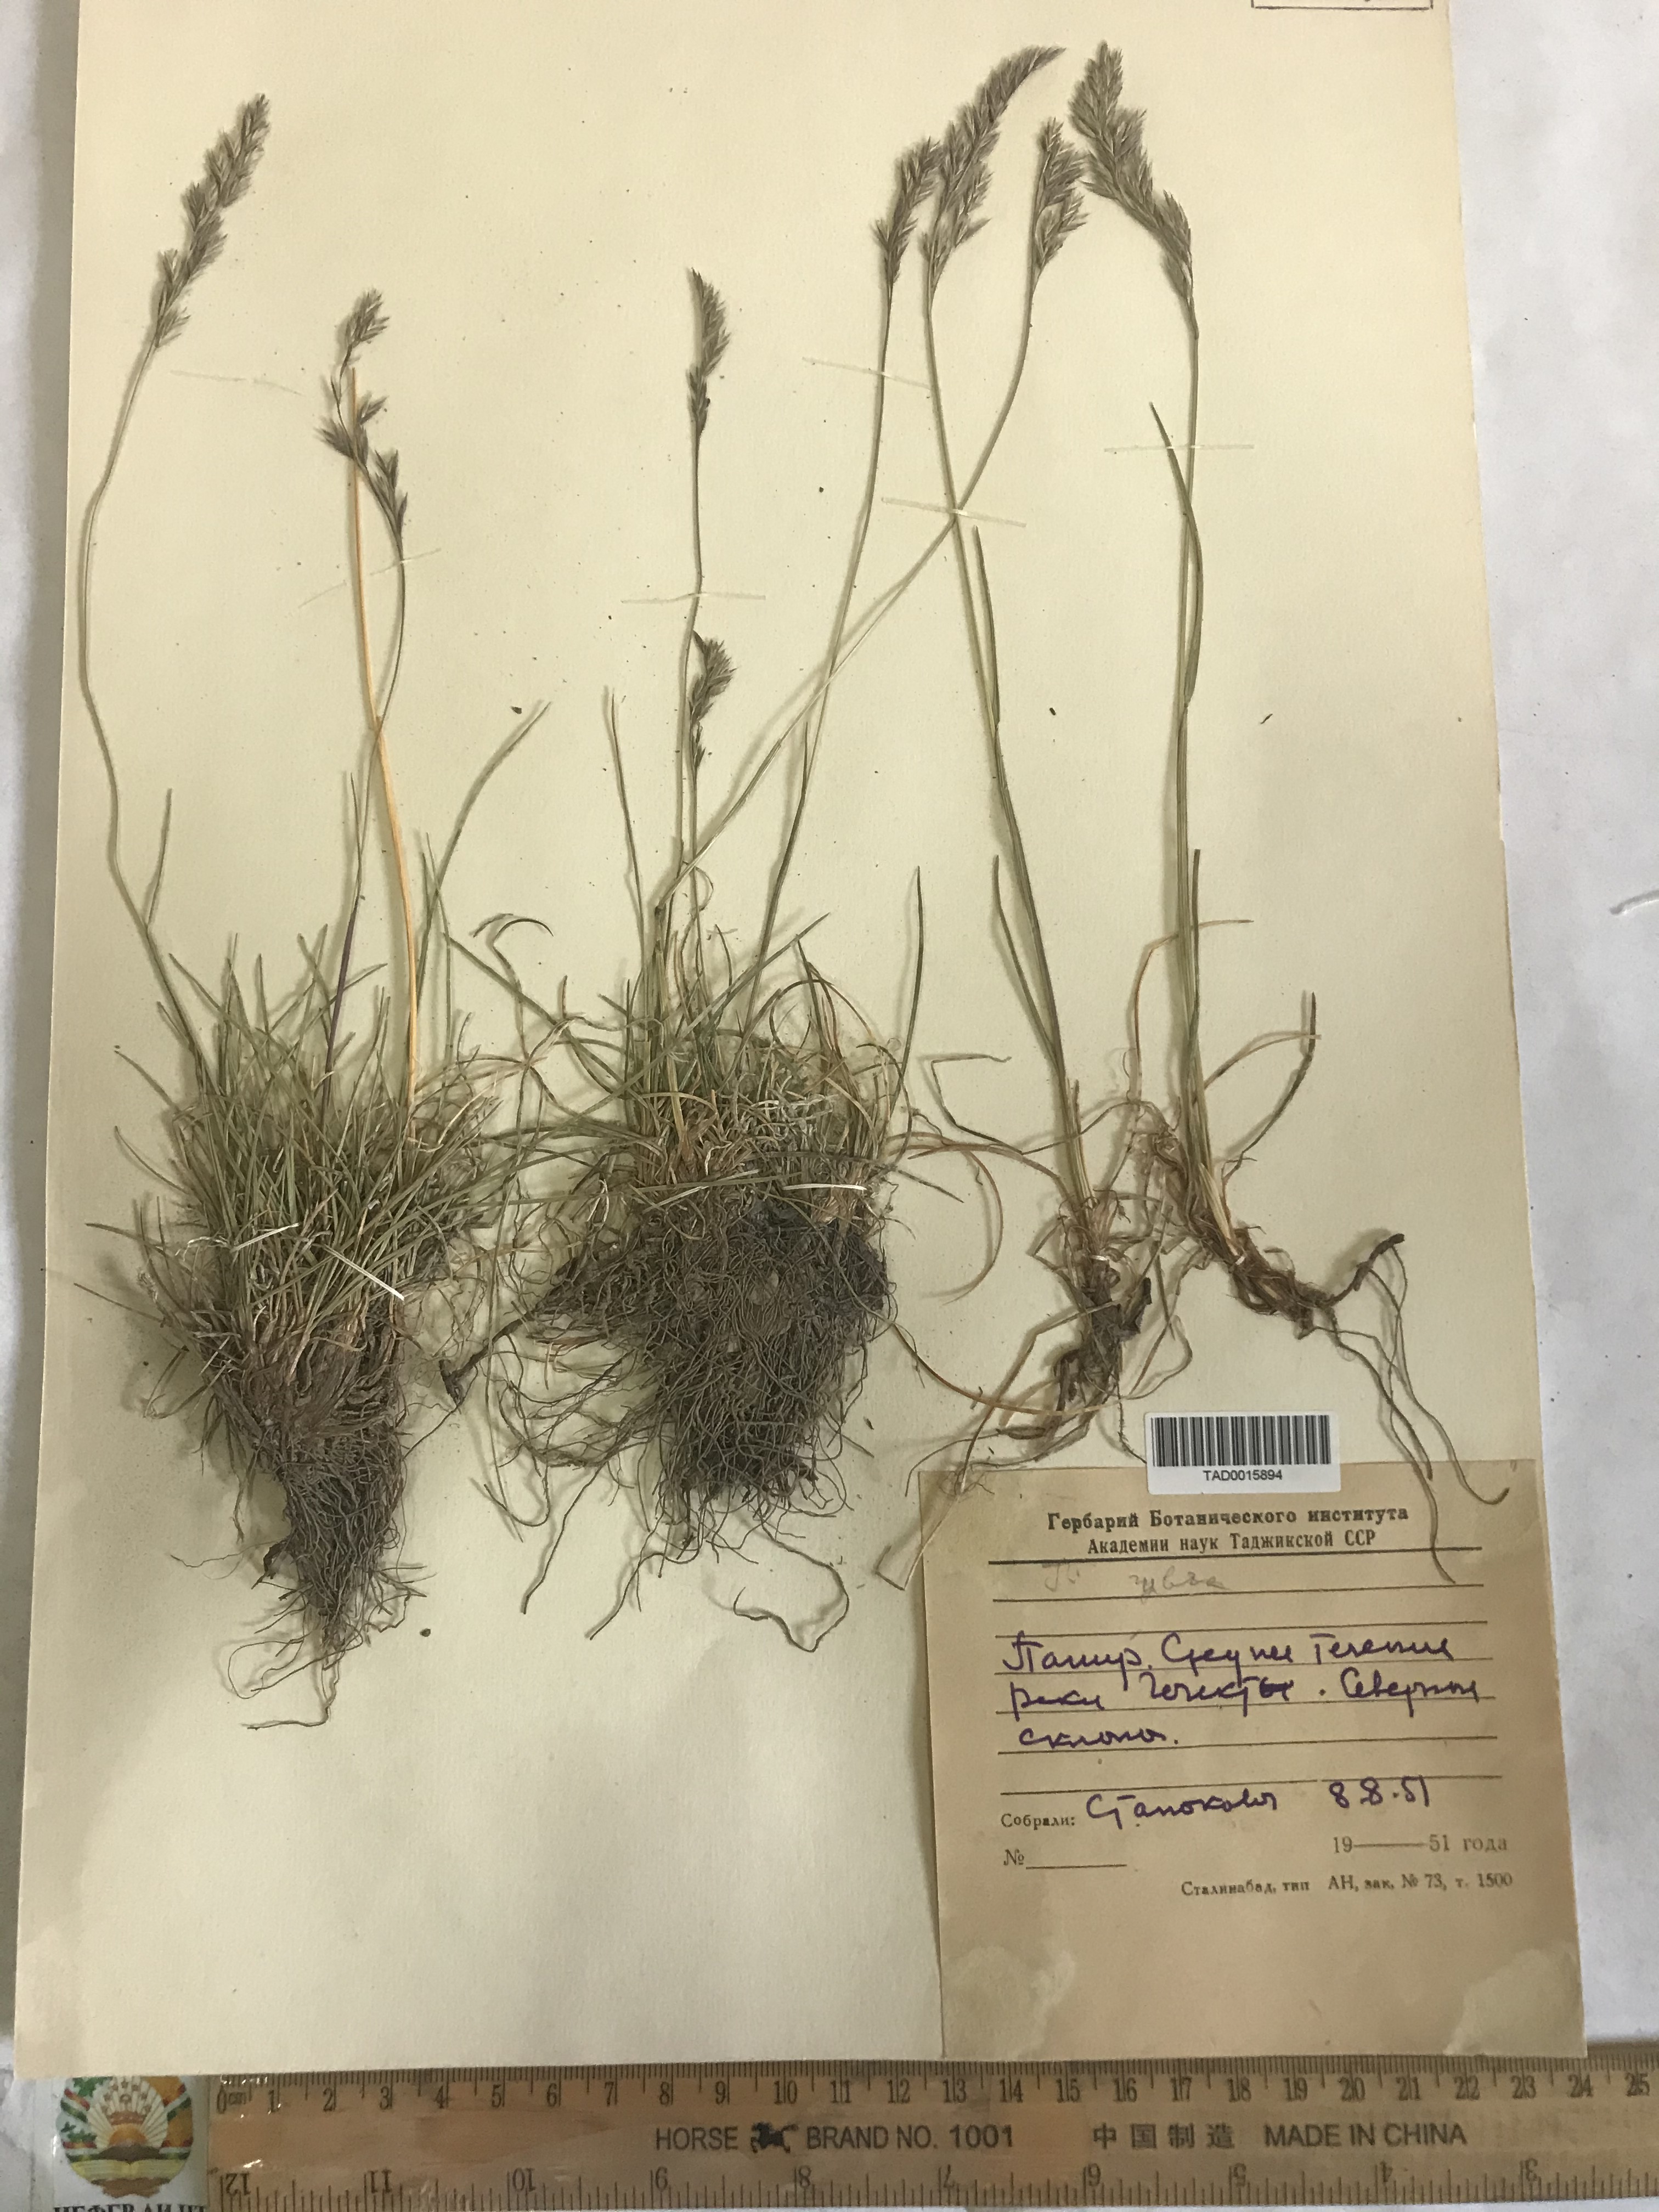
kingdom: Plantae
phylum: Tracheophyta
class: Liliopsida
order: Poales
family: Poaceae
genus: Festuca
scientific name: Festuca
